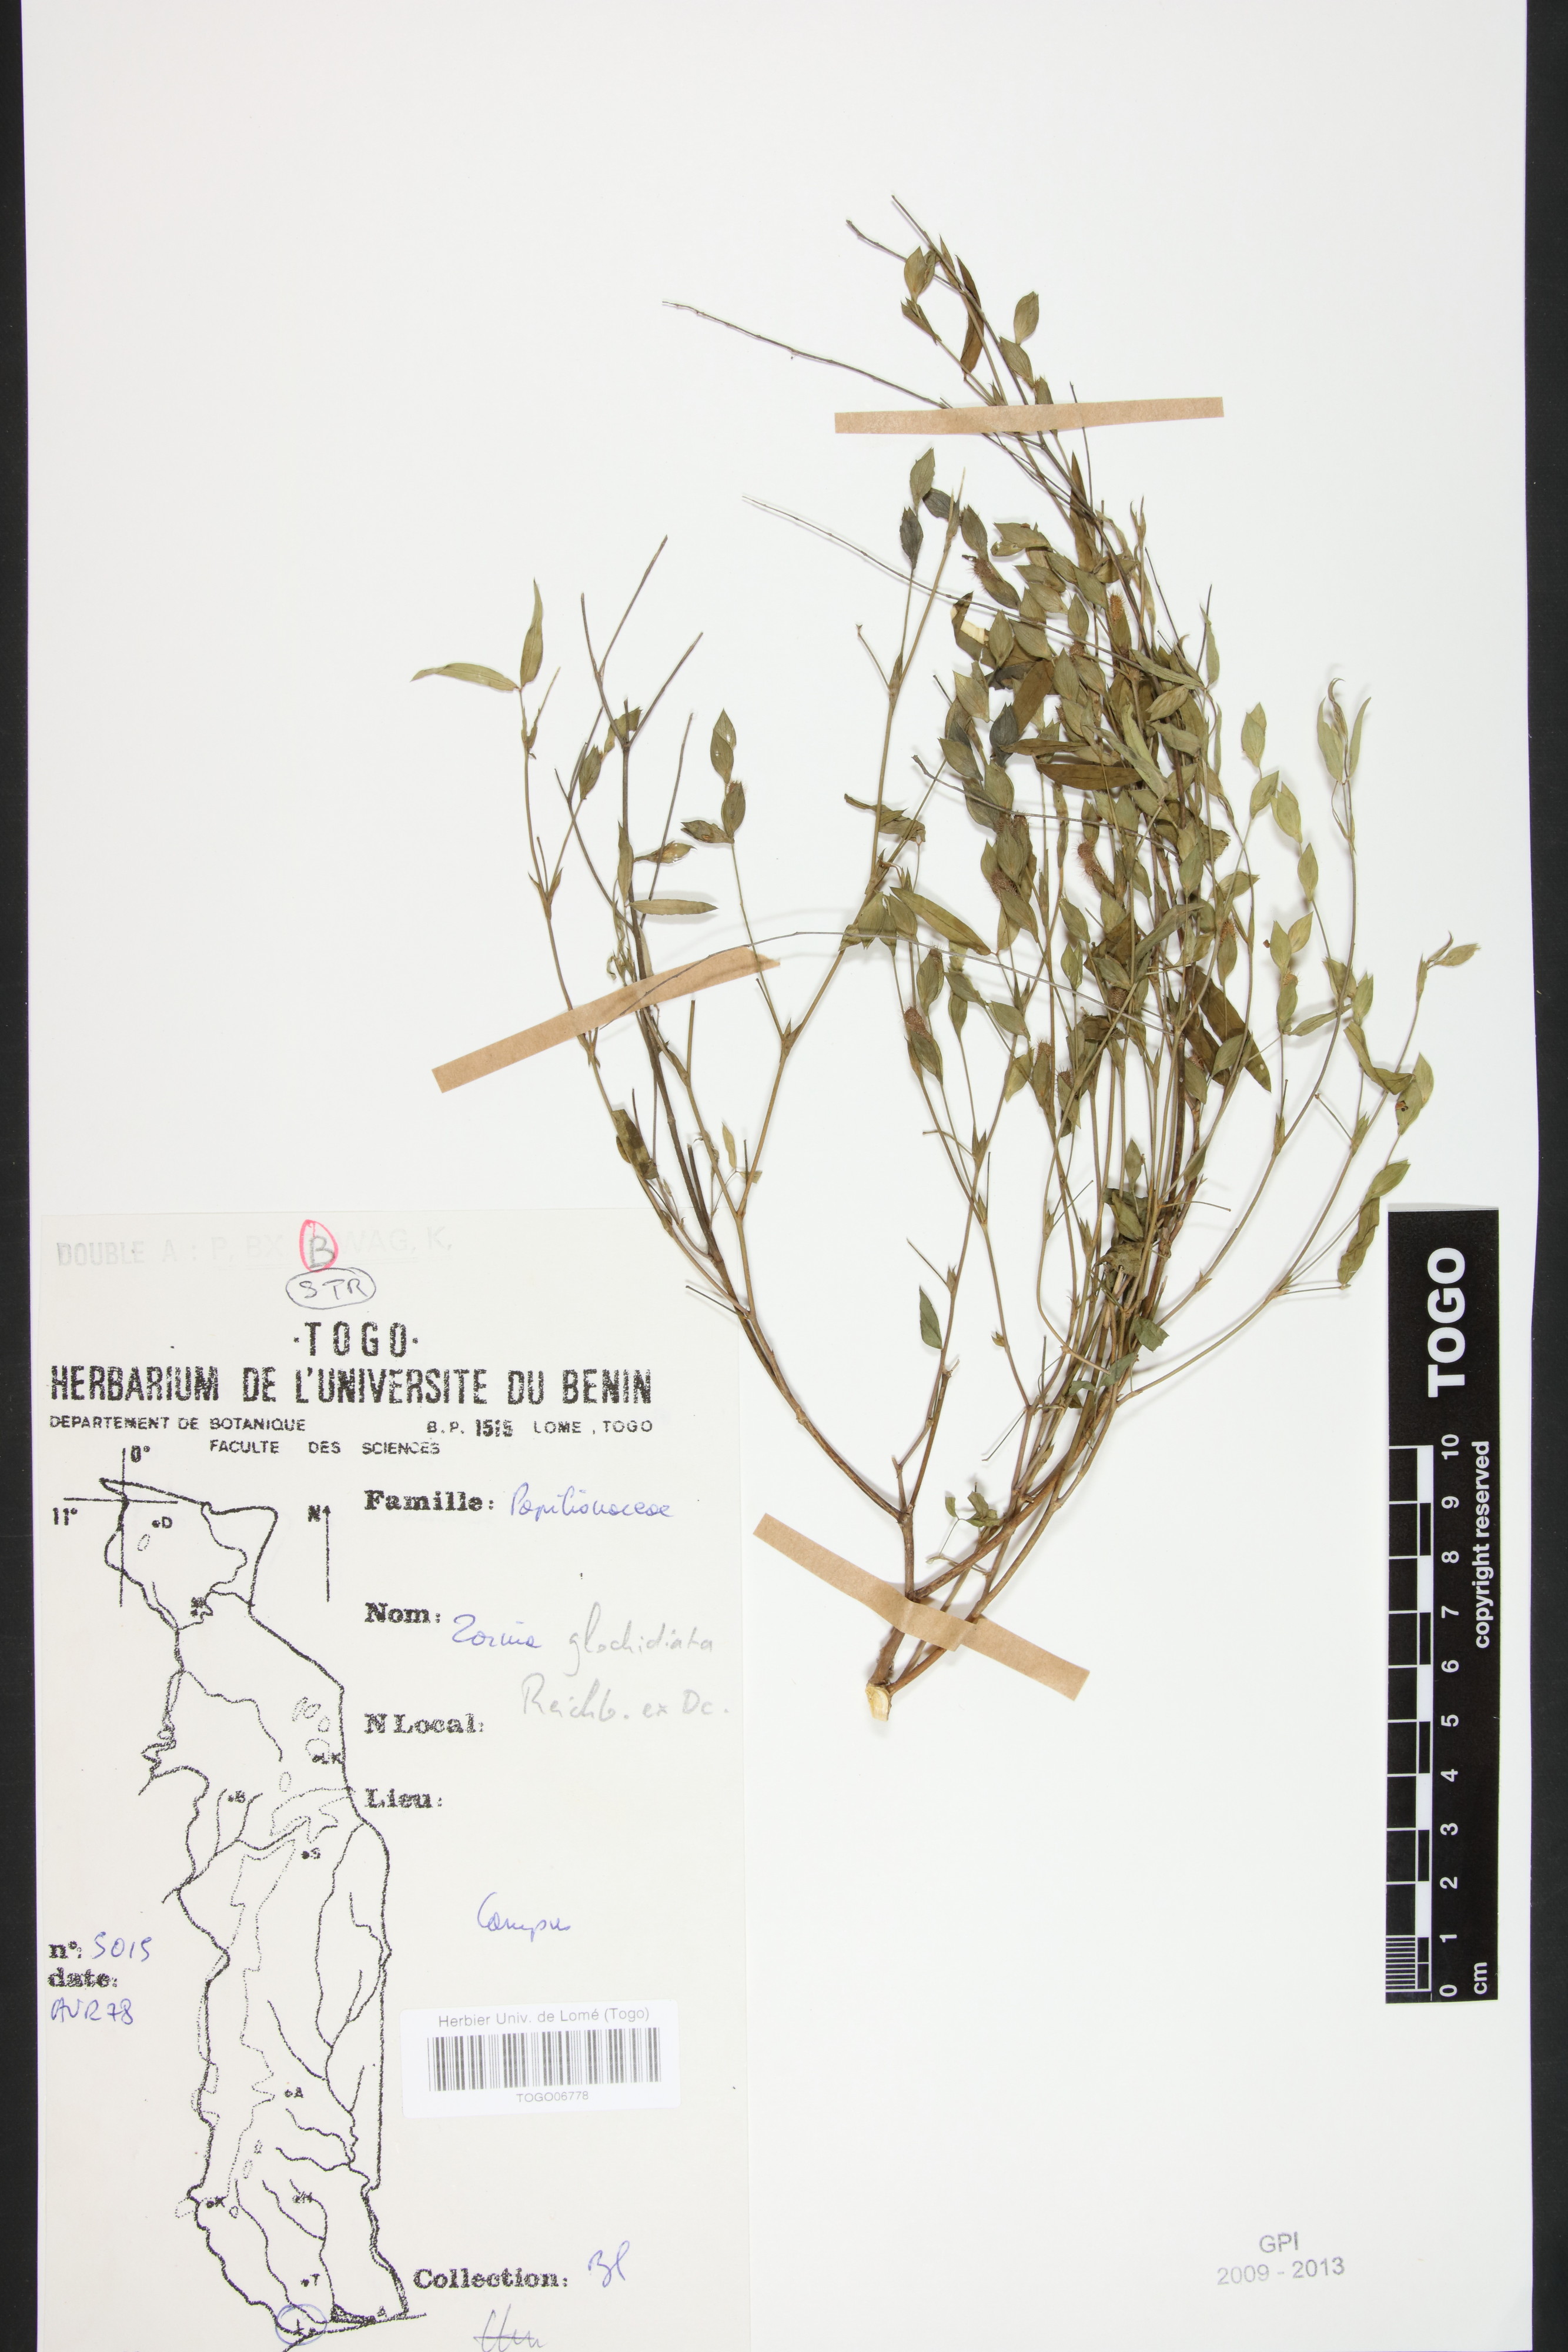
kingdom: Plantae
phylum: Tracheophyta
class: Magnoliopsida
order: Fabales
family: Fabaceae
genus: Zornia
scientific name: Zornia glochidiata
